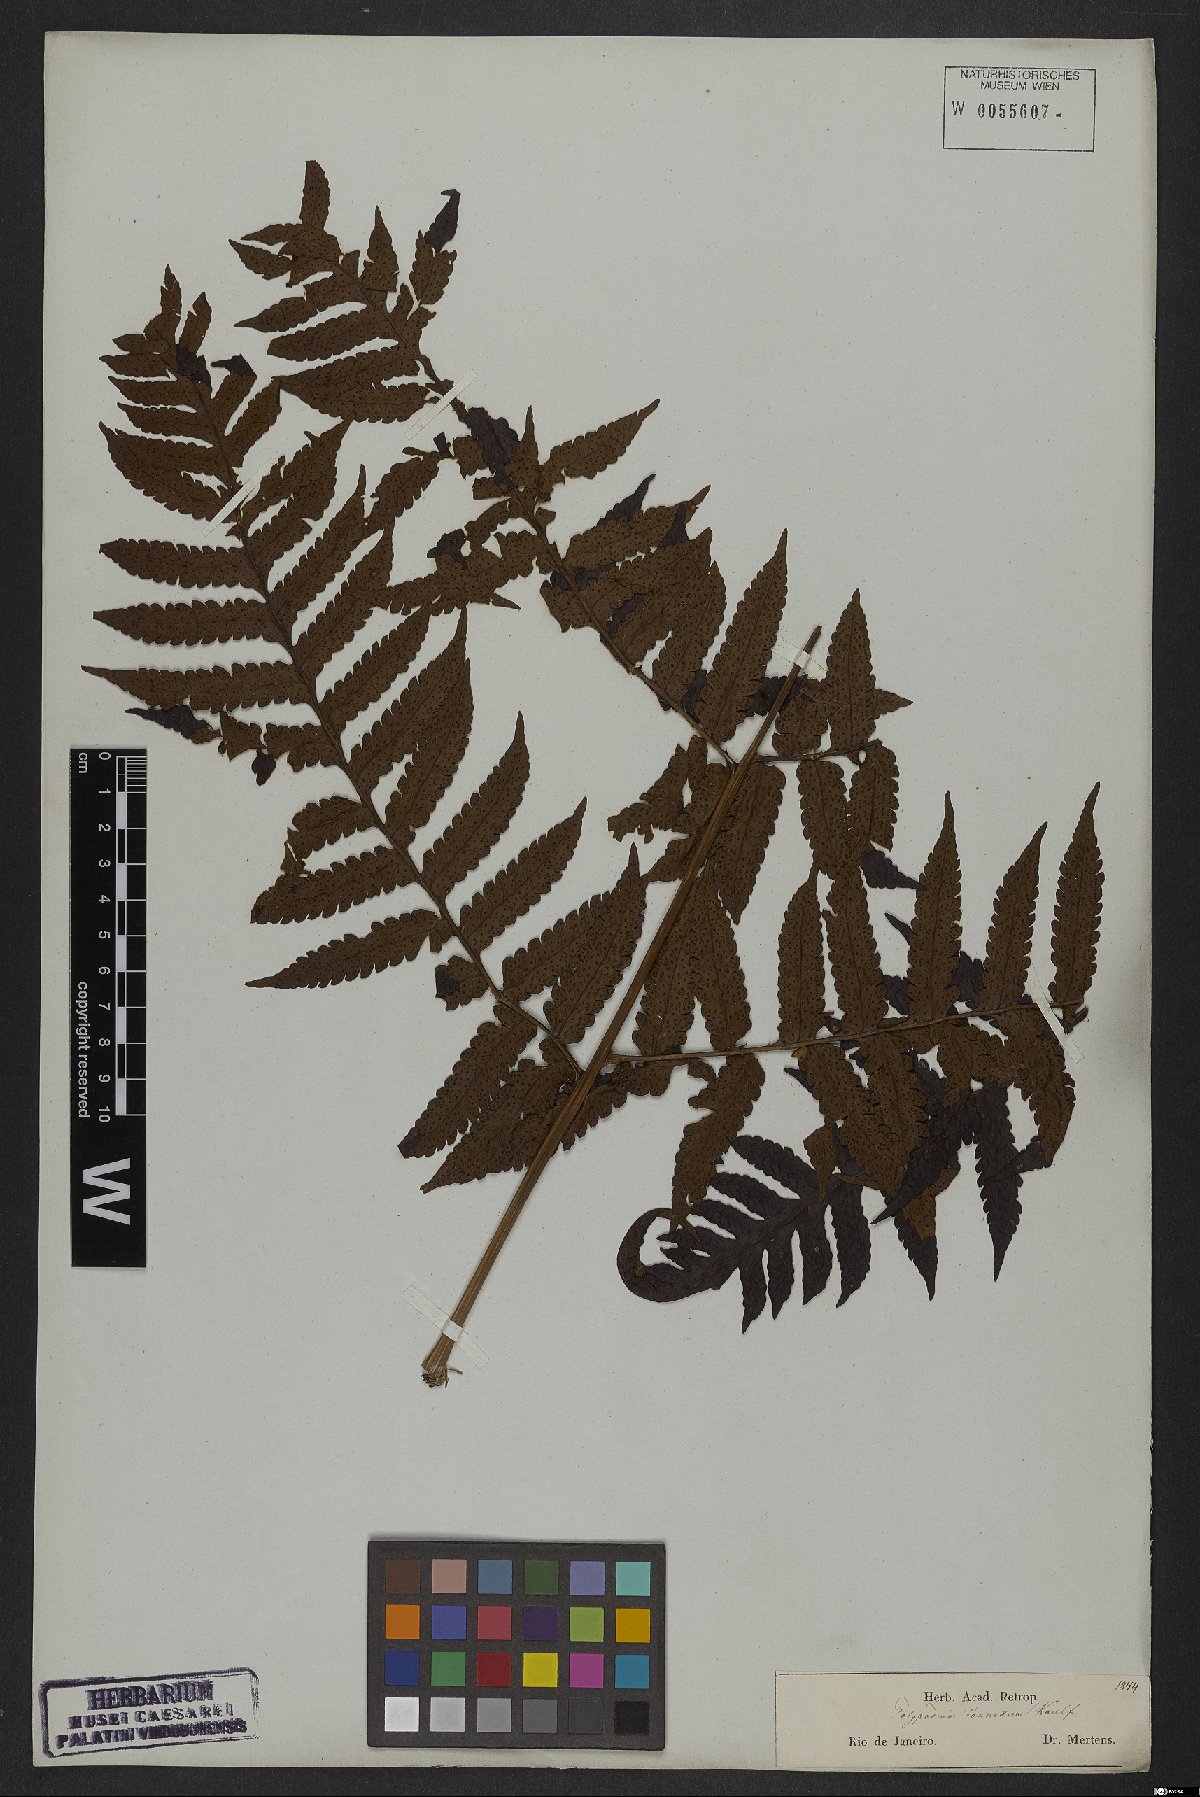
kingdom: Plantae
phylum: Tracheophyta
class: Polypodiopsida
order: Polypodiales
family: Dryopteridaceae
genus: Megalastrum
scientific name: Megalastrum connexum
